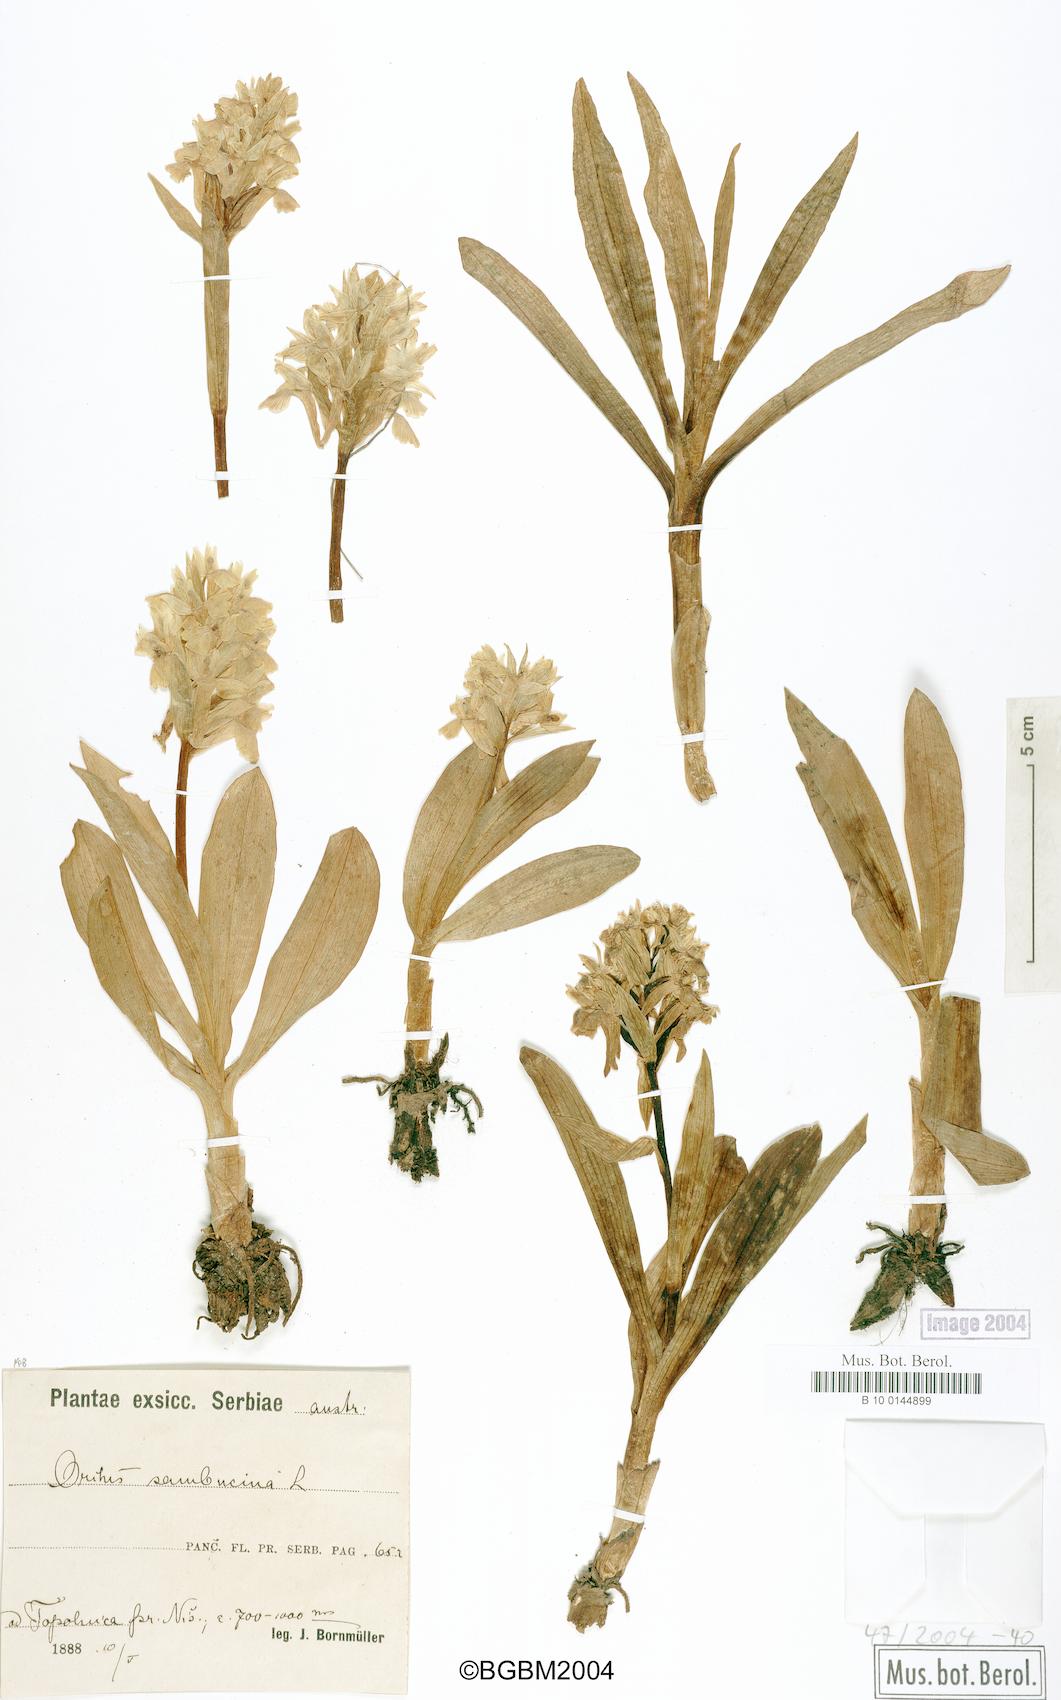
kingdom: Plantae
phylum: Tracheophyta
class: Liliopsida
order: Asparagales
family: Orchidaceae
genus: Dactylorhiza
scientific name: Dactylorhiza sambucina
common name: Elder-flowered orchid
